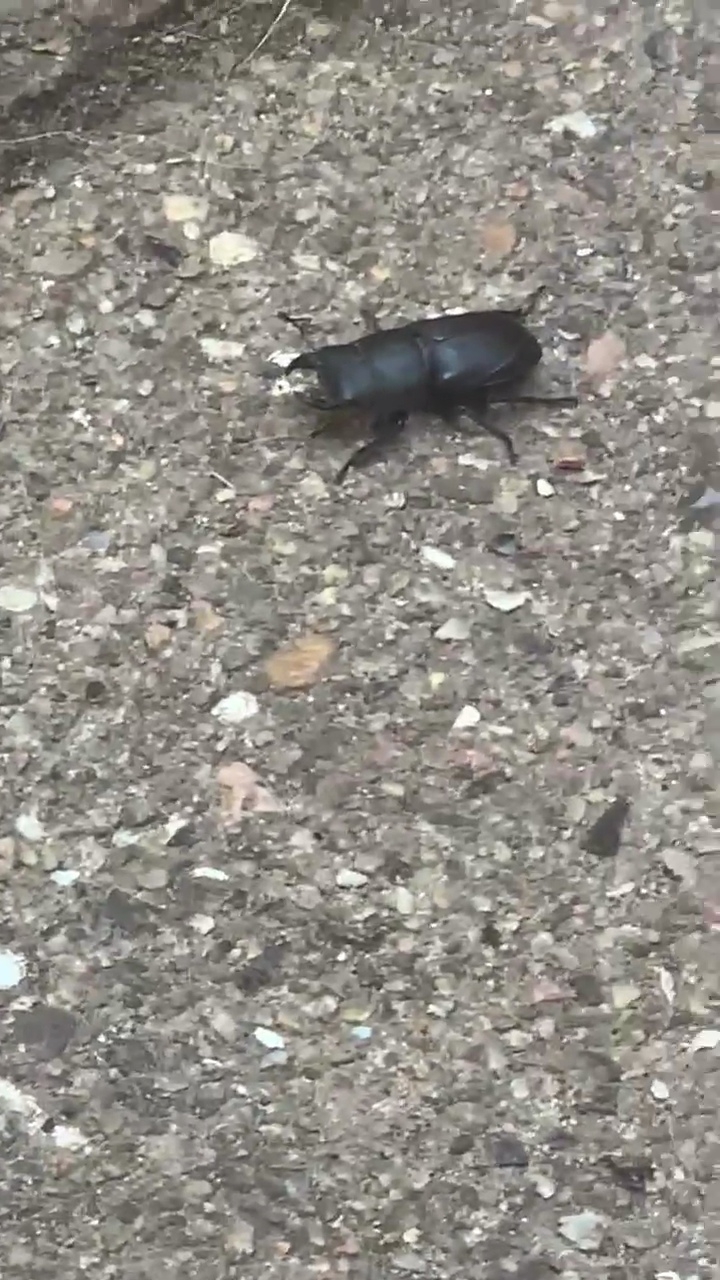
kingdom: Animalia
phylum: Arthropoda
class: Insecta
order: Coleoptera
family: Lucanidae
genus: Dorcus
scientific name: Dorcus parallelipipedus
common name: Bøghjort
